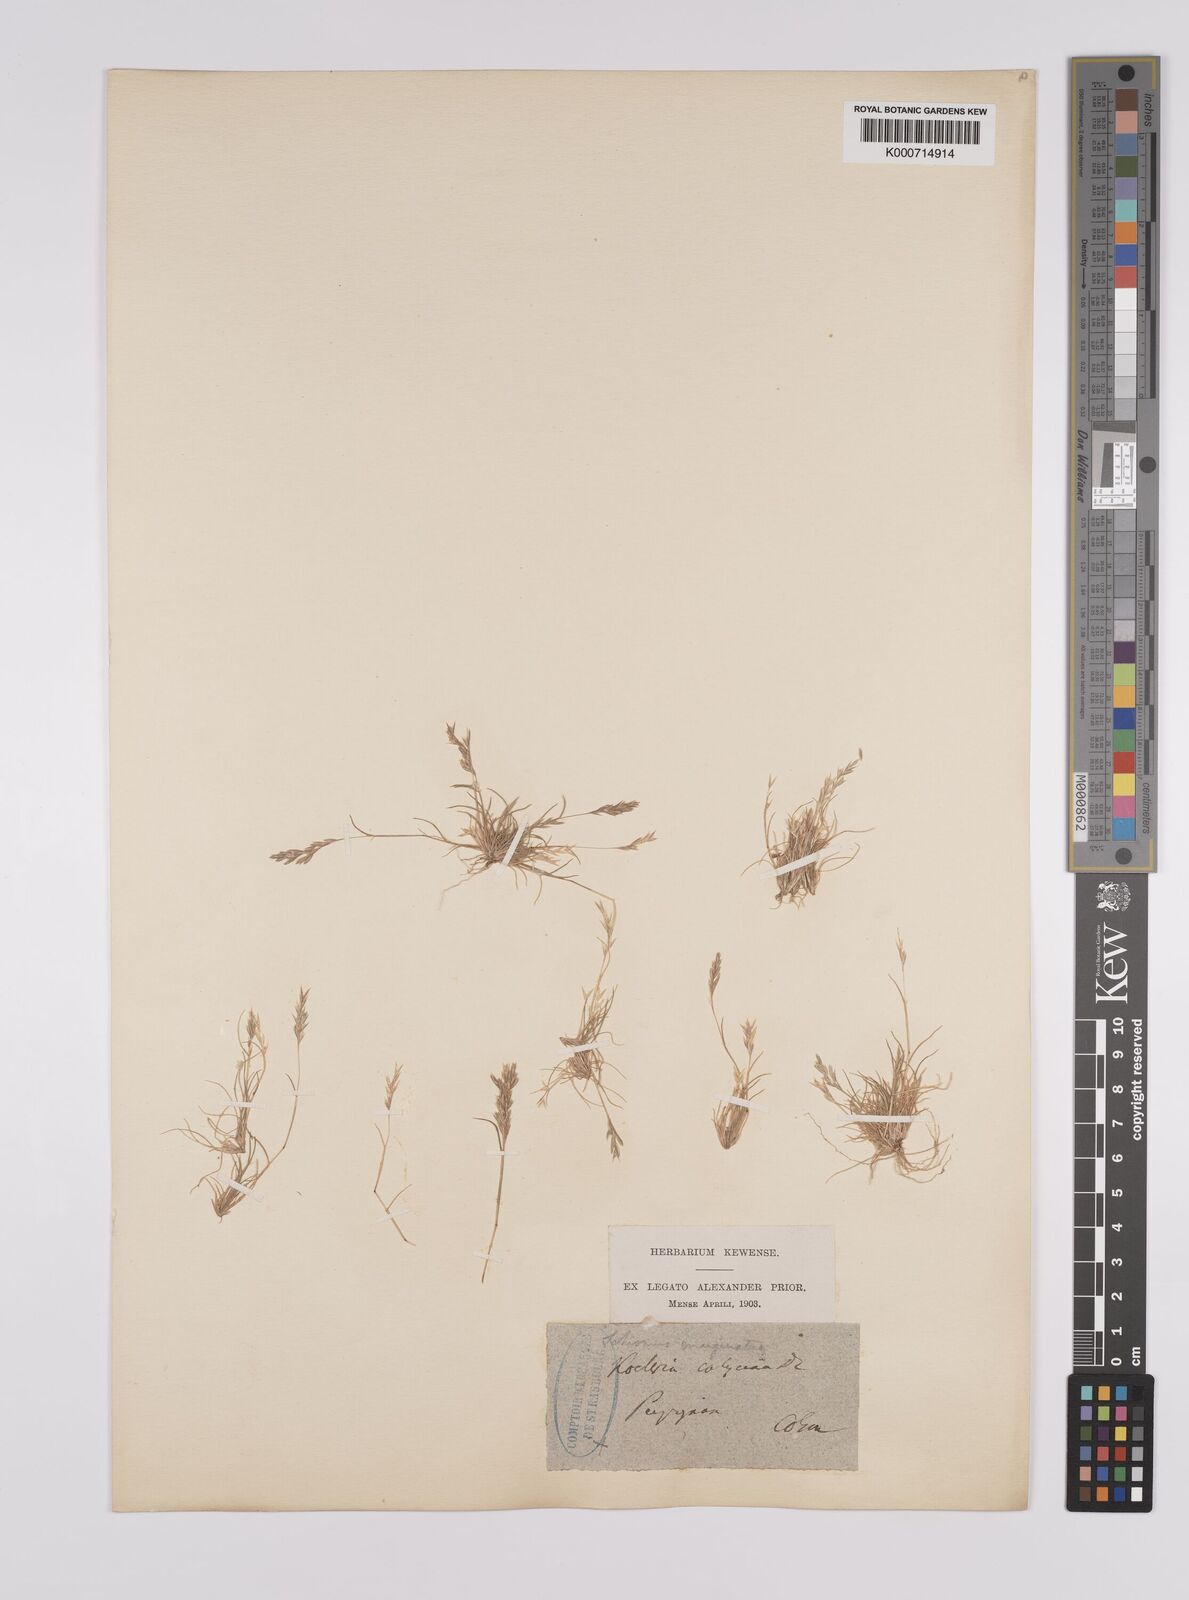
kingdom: Plantae
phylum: Tracheophyta
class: Liliopsida
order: Poales
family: Poaceae
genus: Schismus
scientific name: Schismus barbatus
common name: Kelch-grass
